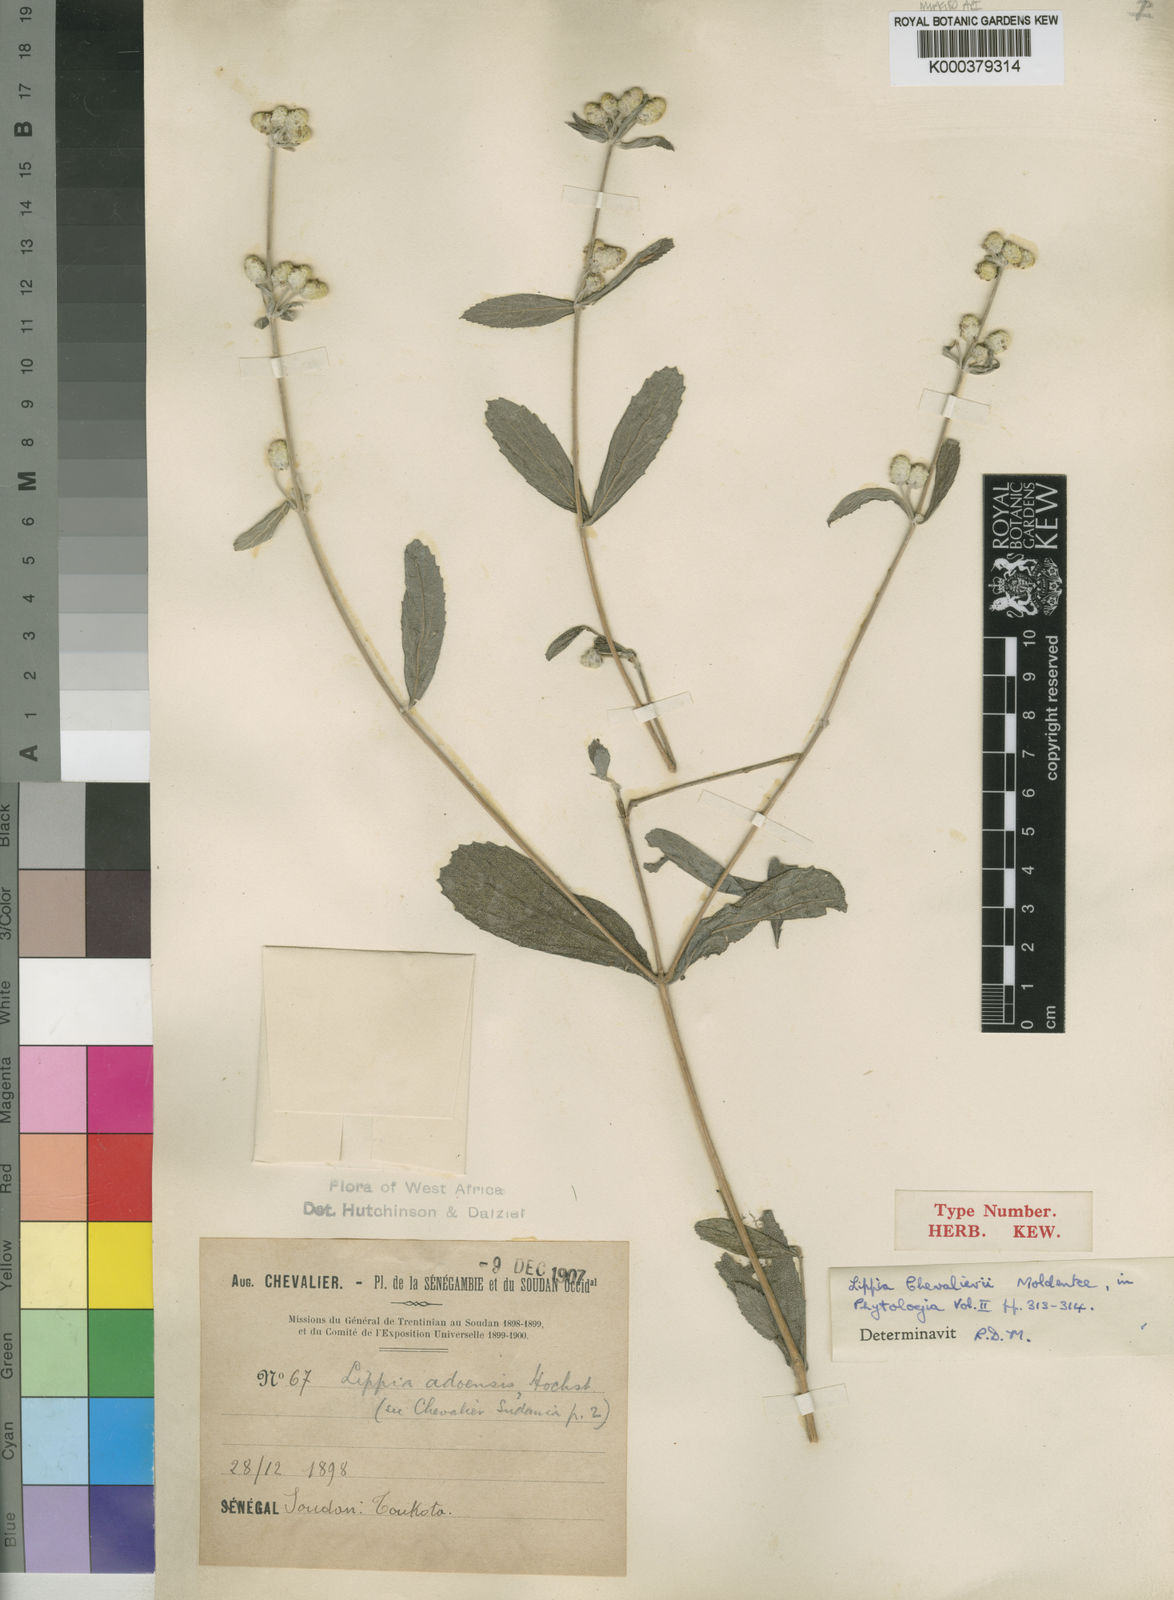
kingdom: Plantae
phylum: Tracheophyta
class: Magnoliopsida
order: Lamiales
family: Verbenaceae
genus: Lippia
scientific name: Lippia chevalieri
